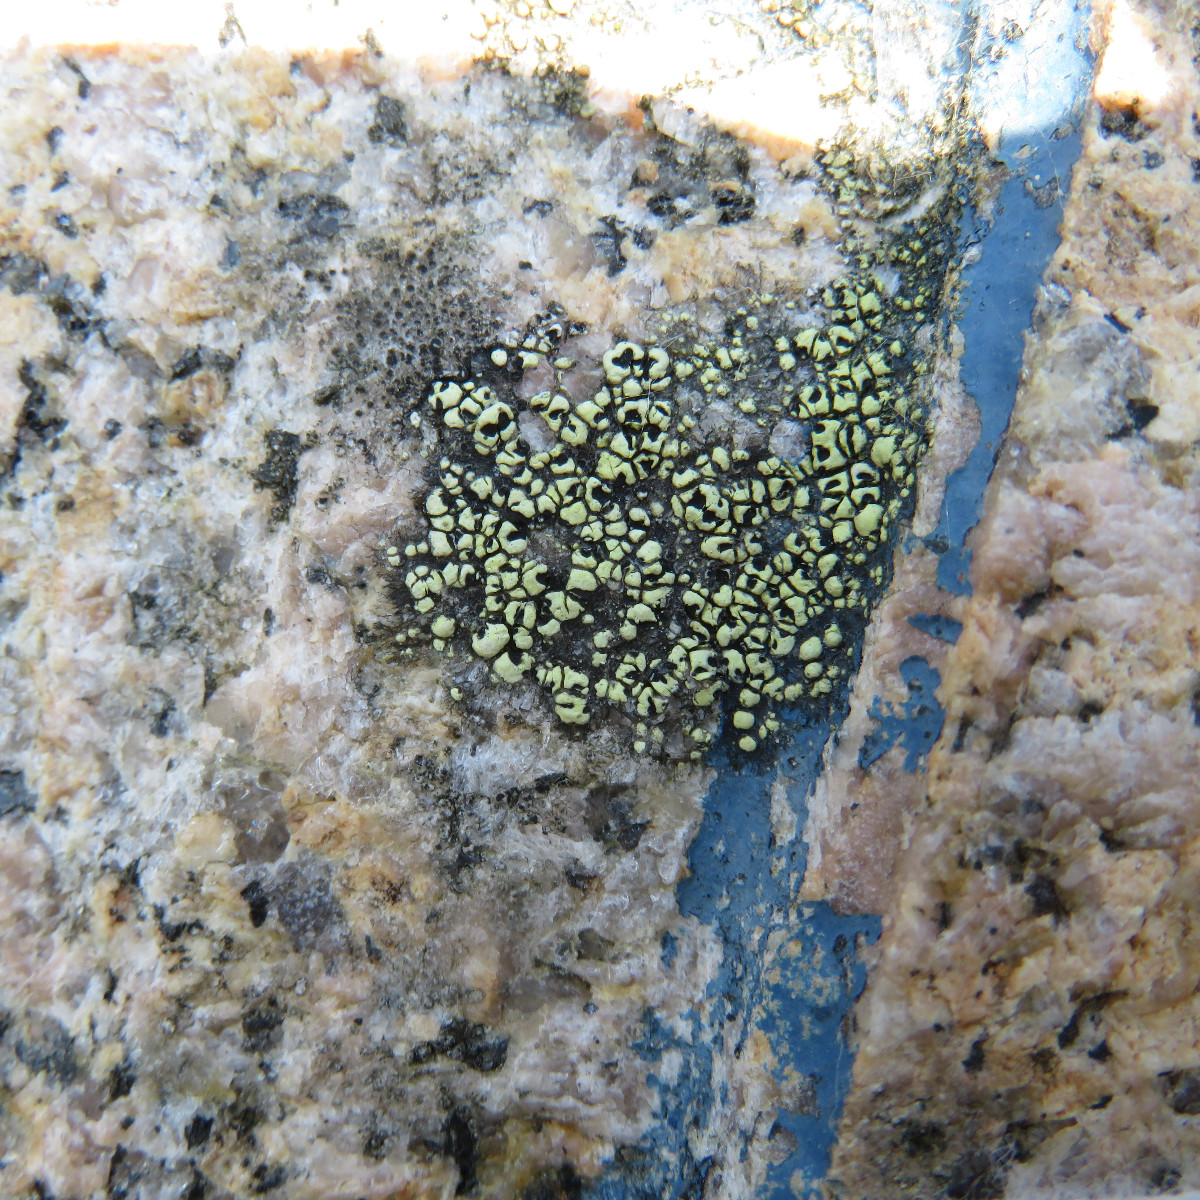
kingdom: Fungi
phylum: Ascomycota
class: Lecanoromycetes
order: Rhizocarpales
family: Rhizocarpaceae
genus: Rhizocarpon
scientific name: Rhizocarpon lecanorinum
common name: krave-landkortlav
